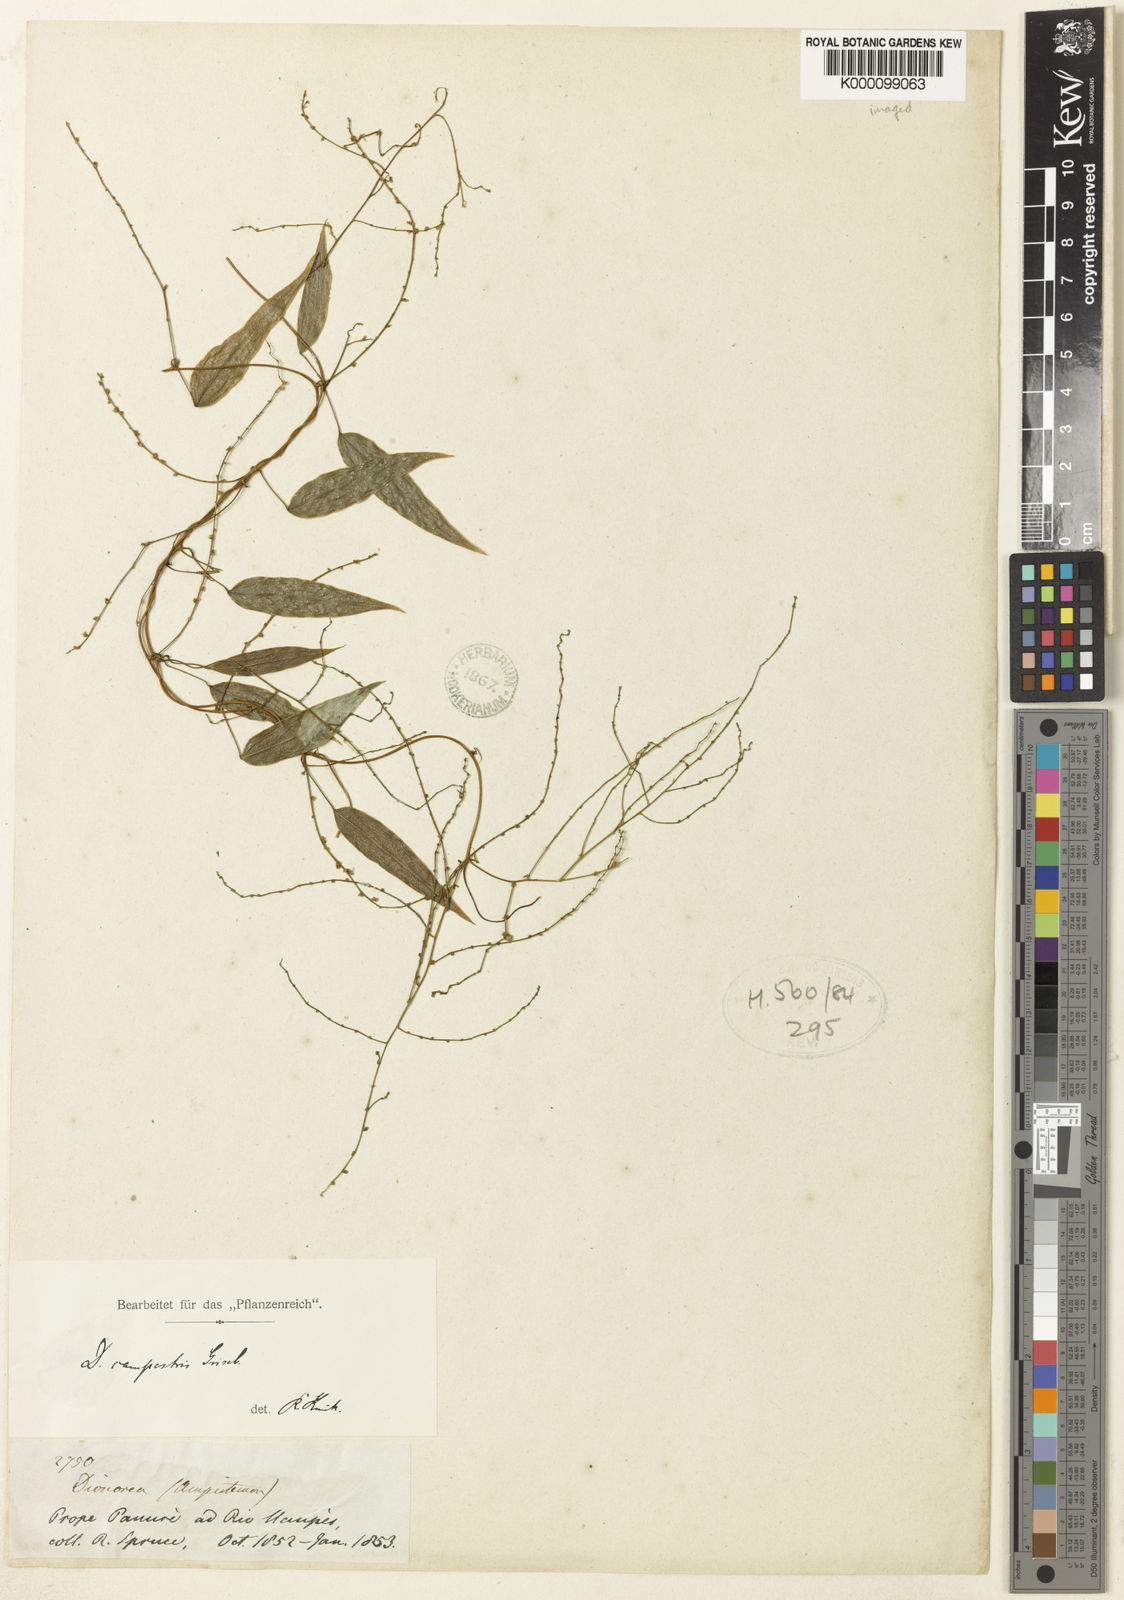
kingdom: Plantae
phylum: Tracheophyta
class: Liliopsida
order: Dioscoreales
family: Dioscoreaceae
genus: Dioscorea
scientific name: Dioscorea campestris
